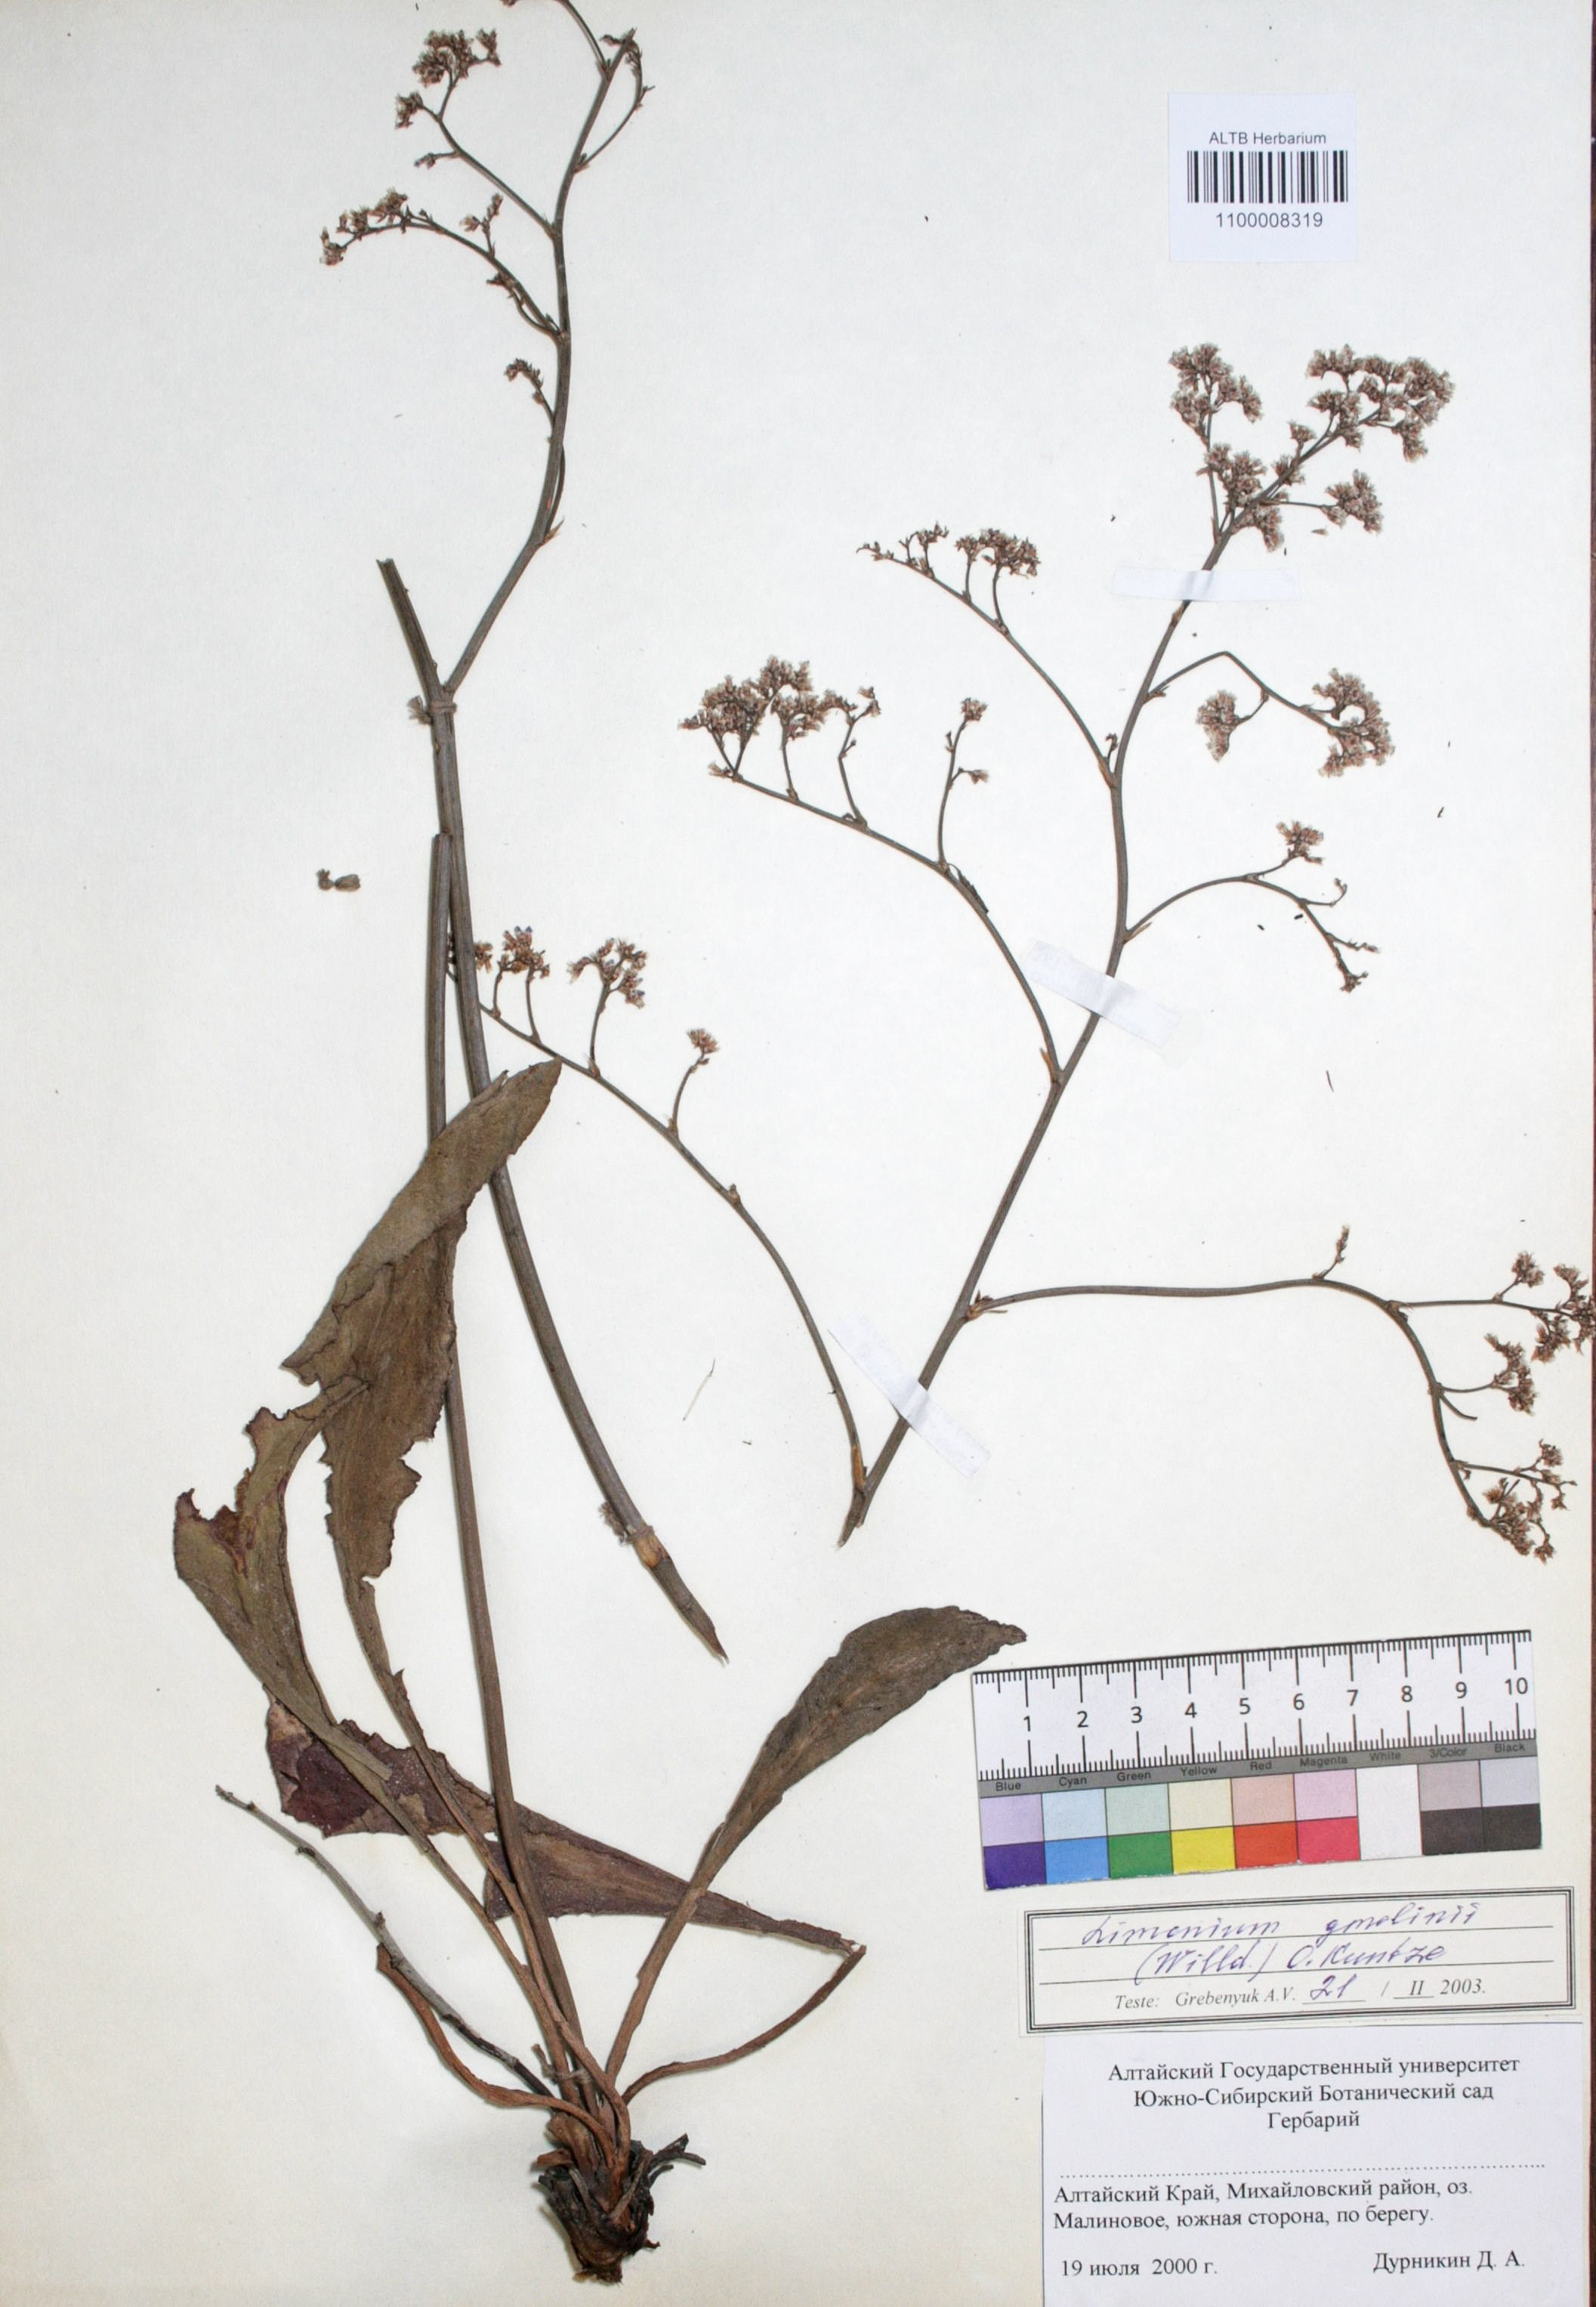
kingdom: Plantae
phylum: Tracheophyta
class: Magnoliopsida
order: Caryophyllales
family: Plumbaginaceae
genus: Limonium
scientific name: Limonium gmelini
